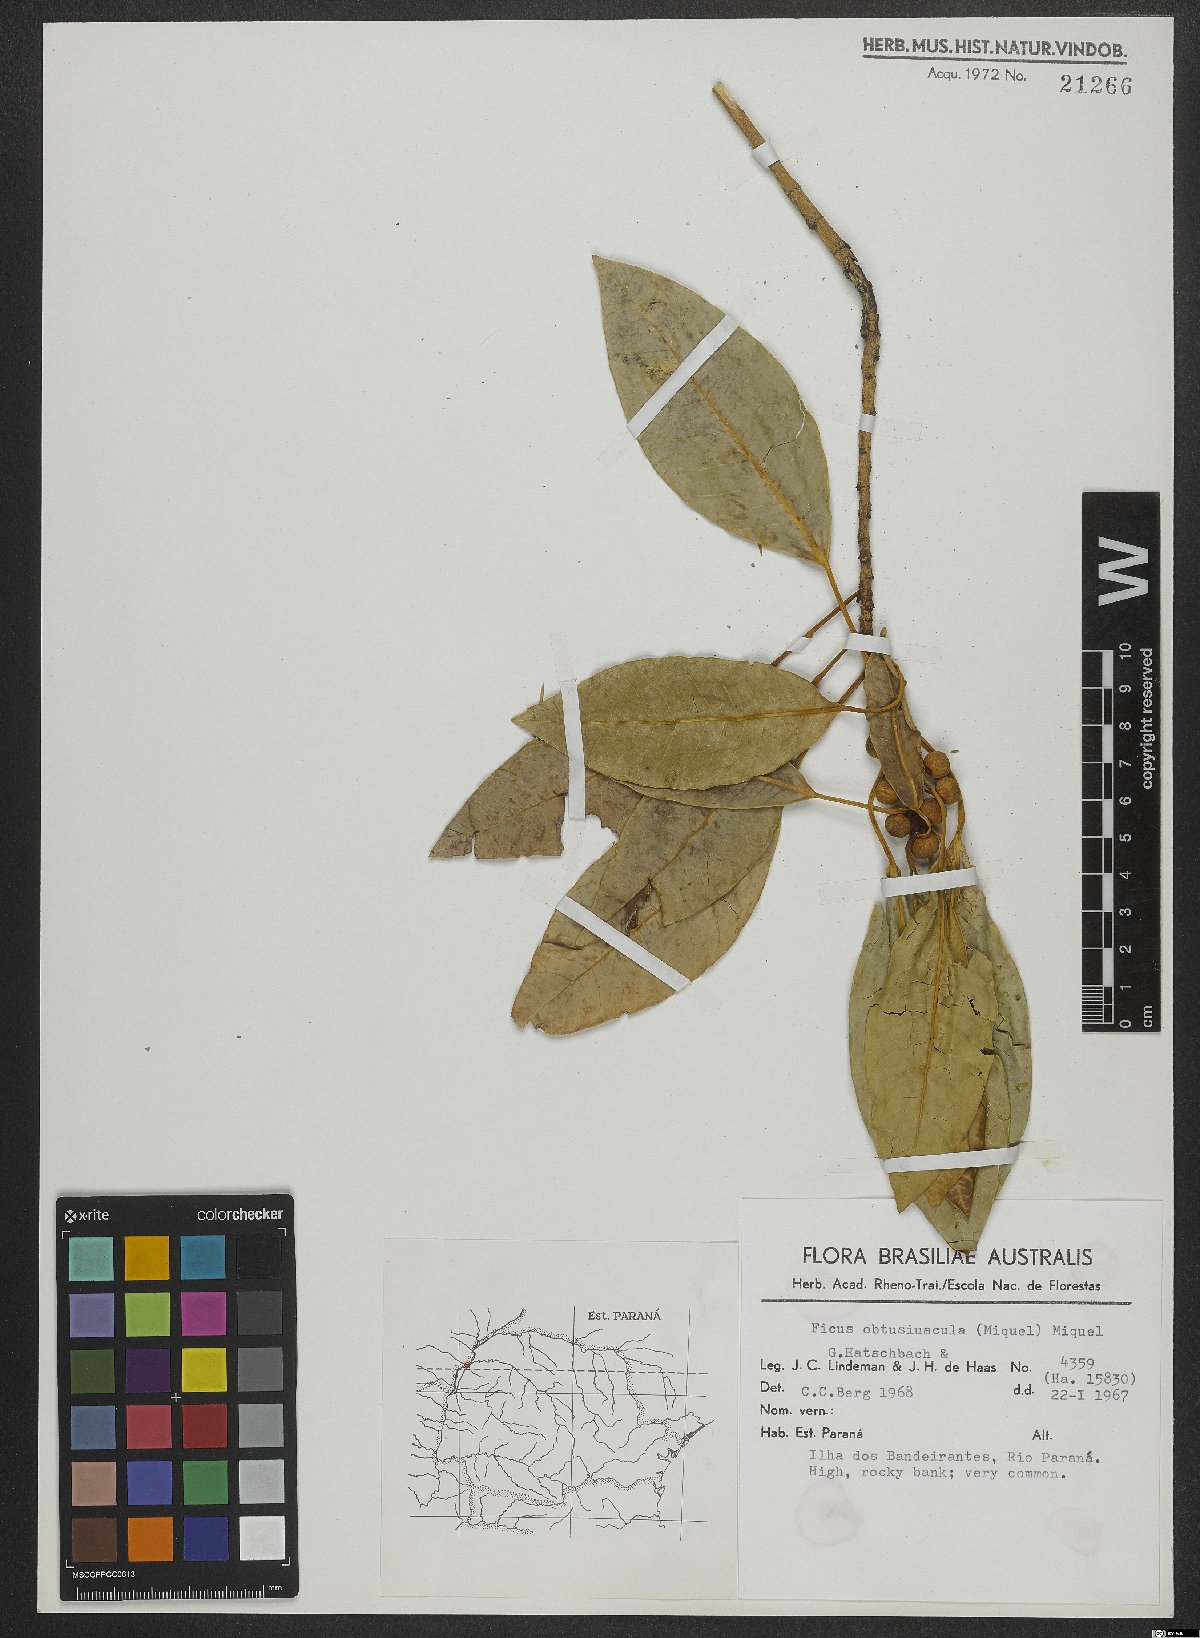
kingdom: Plantae
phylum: Tracheophyta
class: Magnoliopsida
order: Rosales
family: Moraceae
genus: Ficus
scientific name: Ficus obtusiuscula
